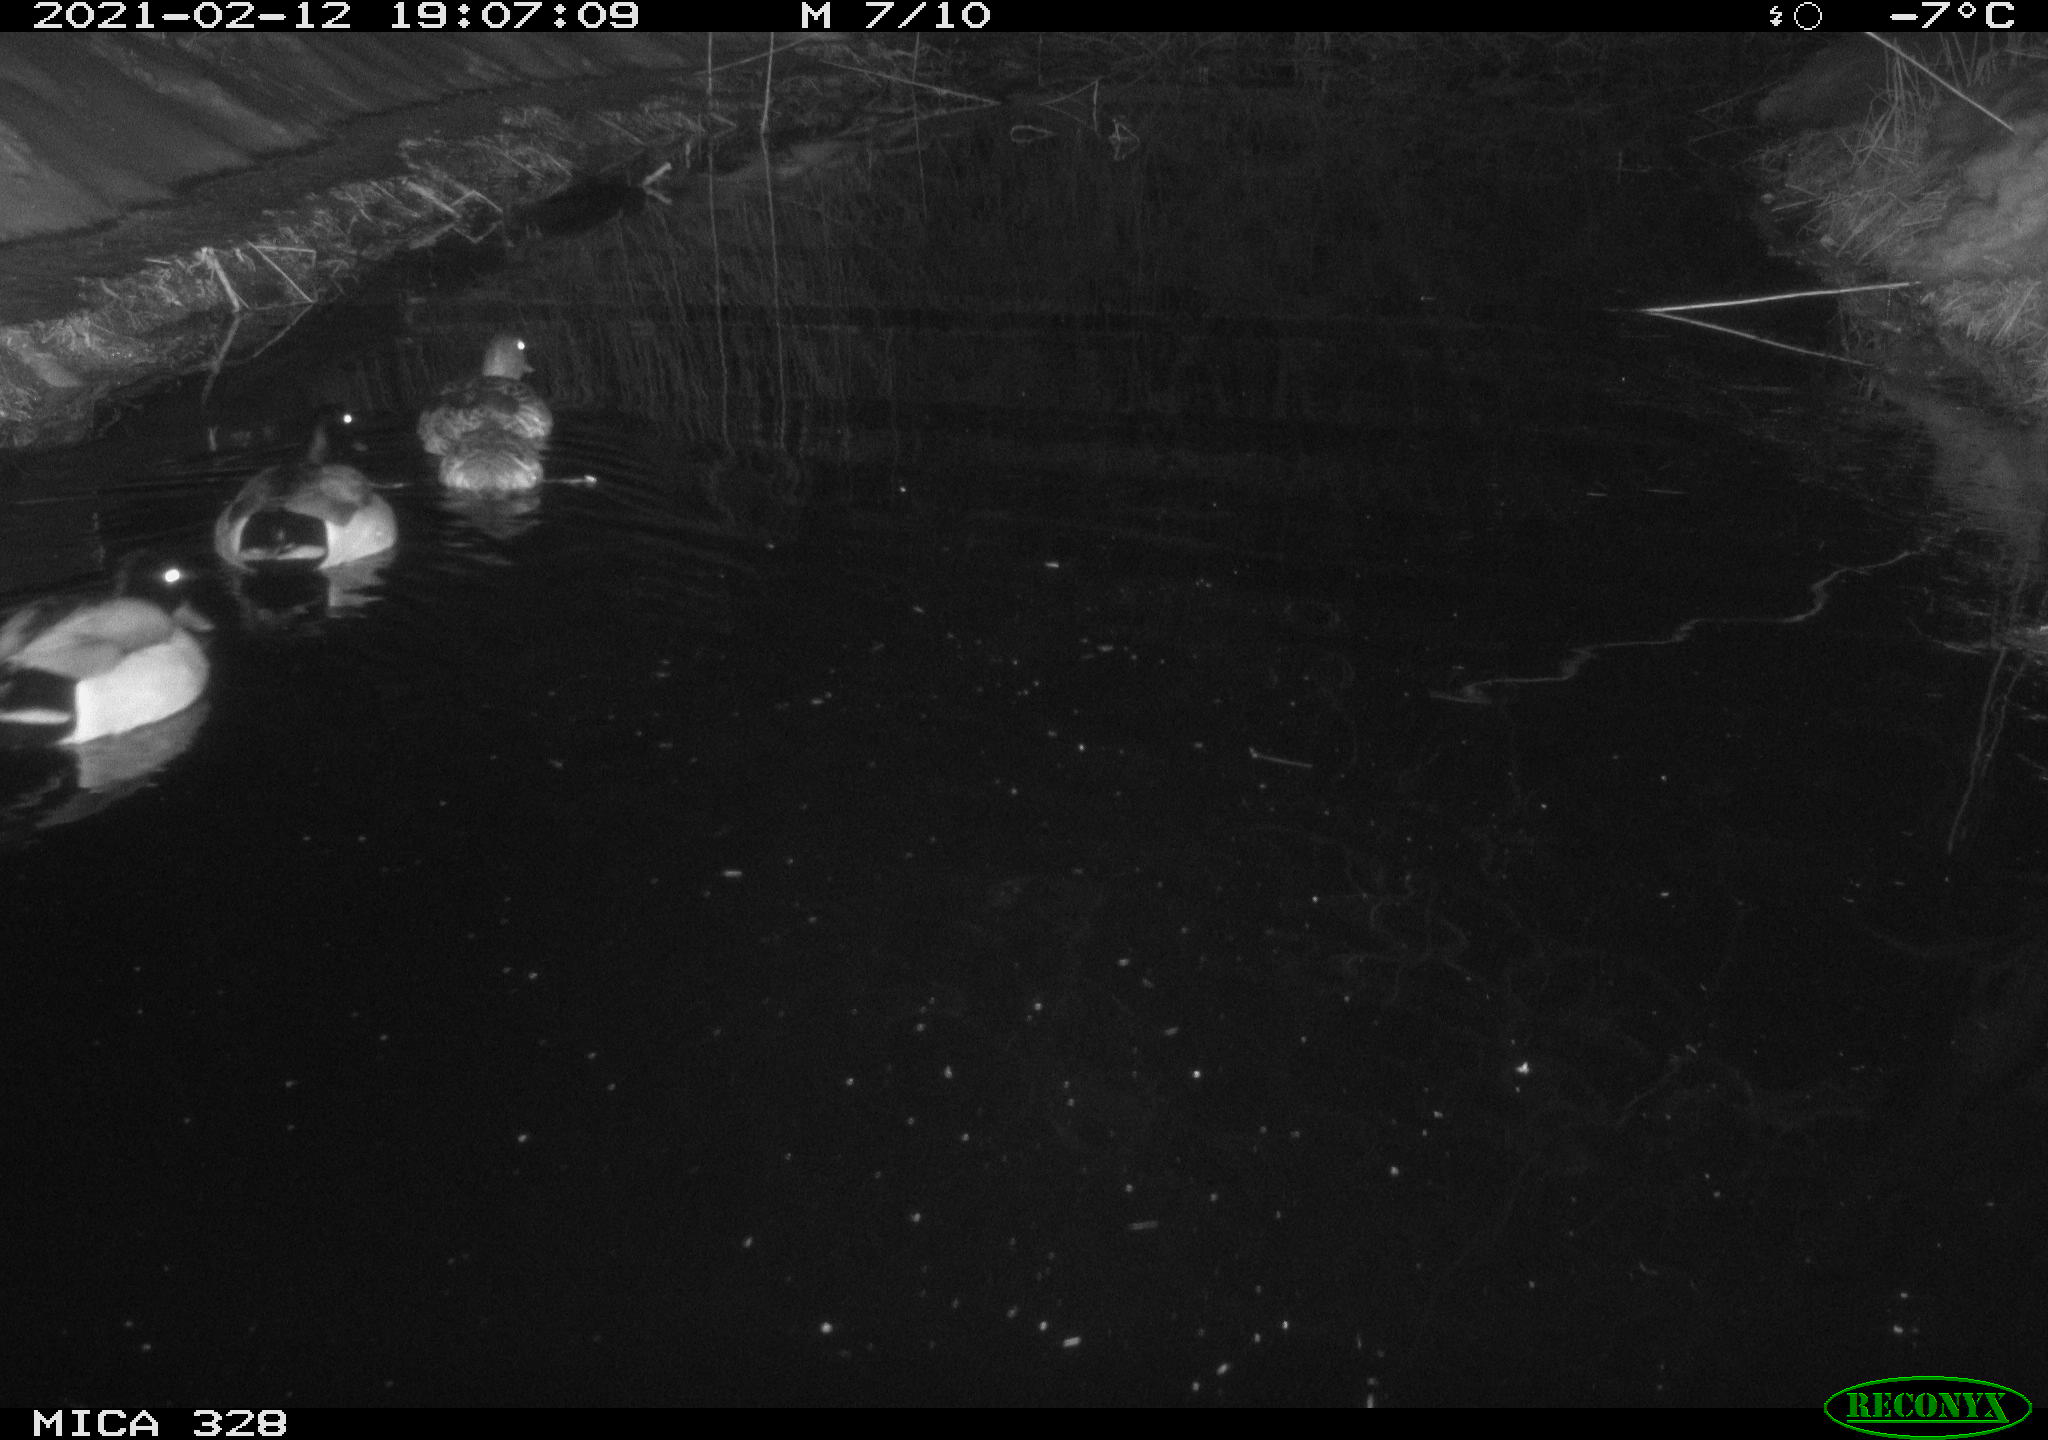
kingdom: Animalia
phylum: Chordata
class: Aves
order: Anseriformes
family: Anatidae
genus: Anas
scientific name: Anas platyrhynchos
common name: Mallard
